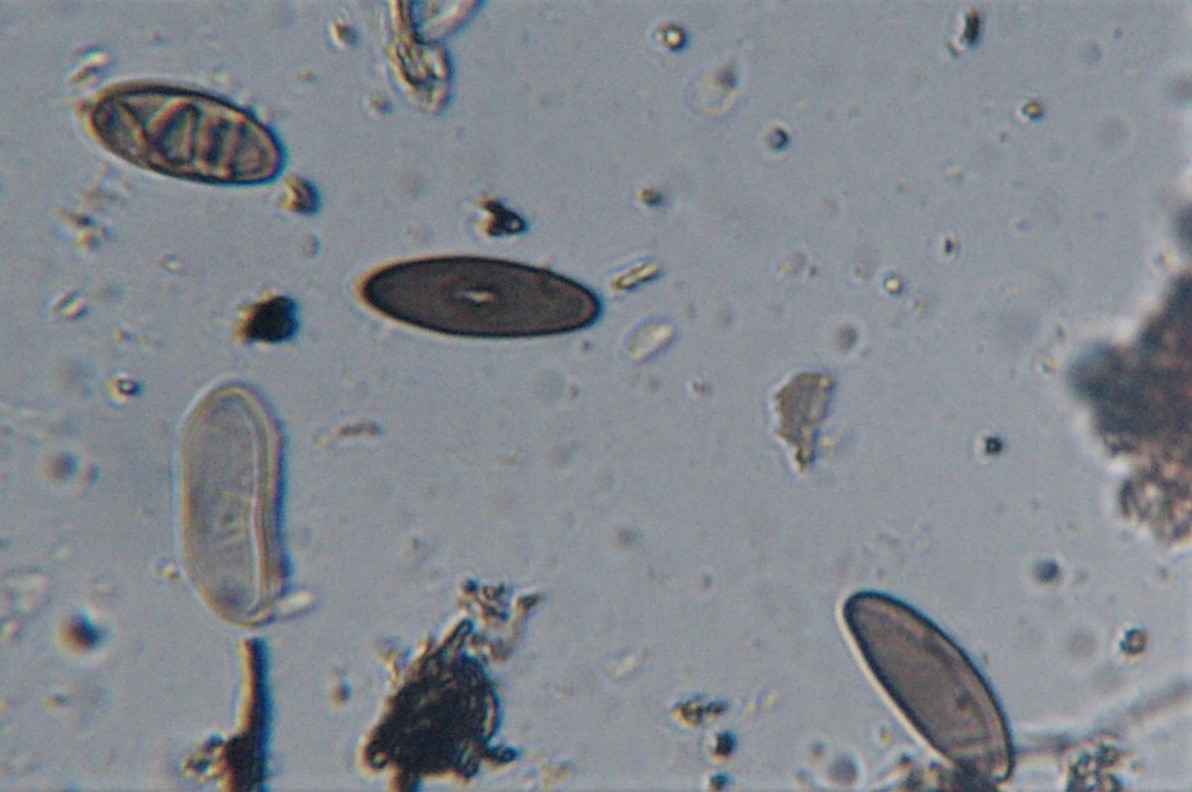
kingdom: Fungi
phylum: Ascomycota
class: Sordariomycetes
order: Xylariales
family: Xylariaceae
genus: Euepixylon
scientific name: Euepixylon udum
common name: ege-kuldyne
